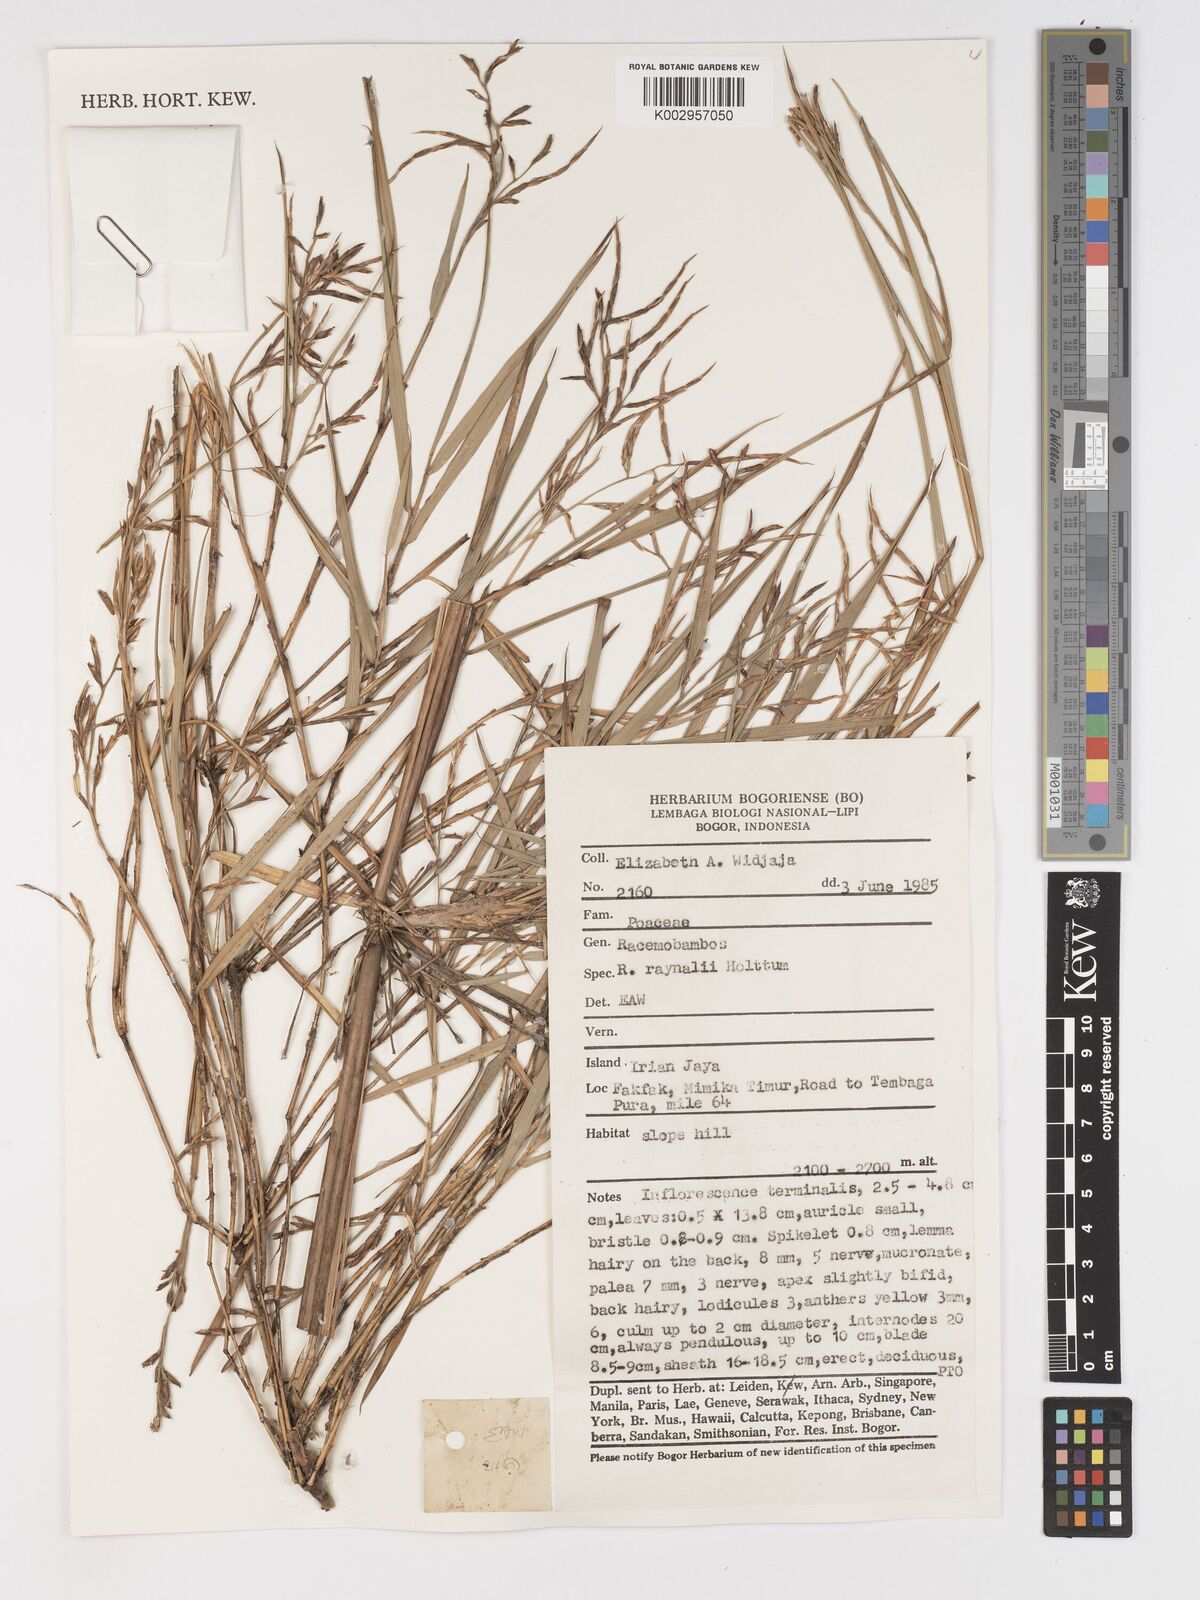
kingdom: Plantae
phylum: Tracheophyta
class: Liliopsida
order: Poales
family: Poaceae
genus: Racemobambos
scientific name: Racemobambos raynalii
